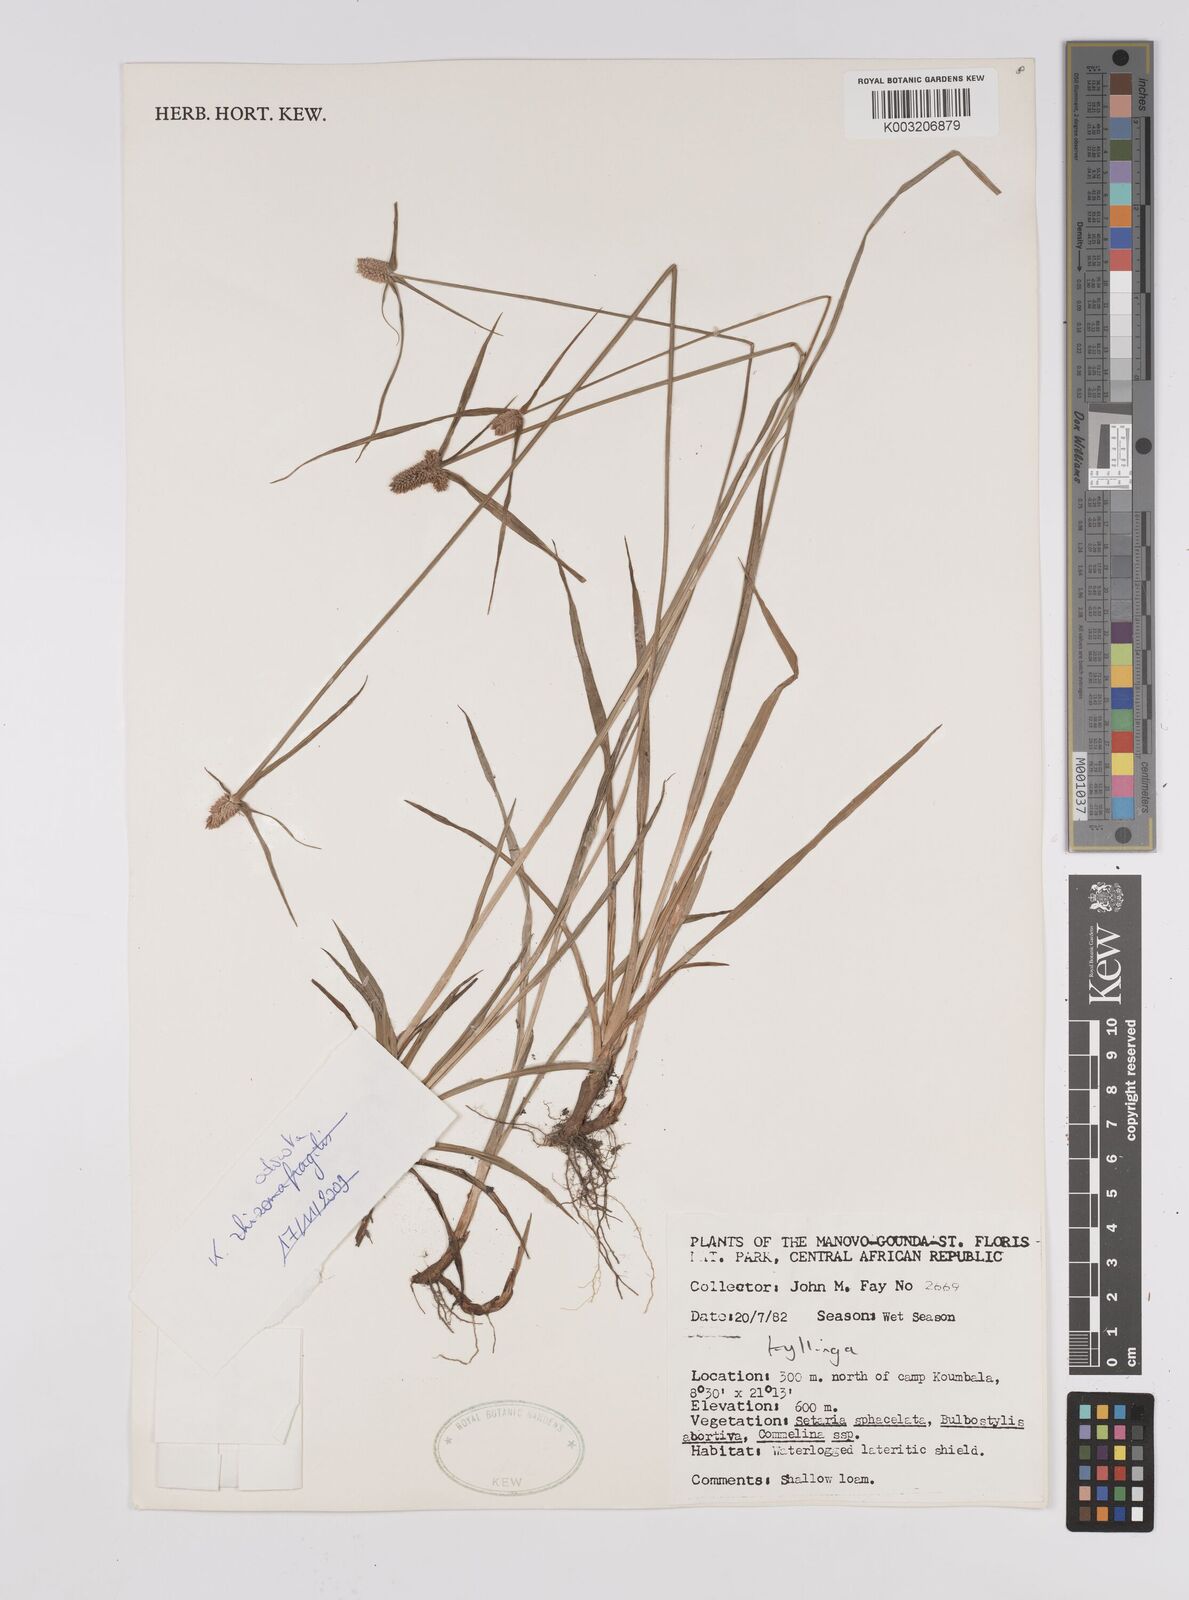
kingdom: Plantae
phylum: Tracheophyta
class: Liliopsida
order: Poales
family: Cyperaceae
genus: Cyperus
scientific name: Cyperus odoratus
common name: Fragrant flatsedge
